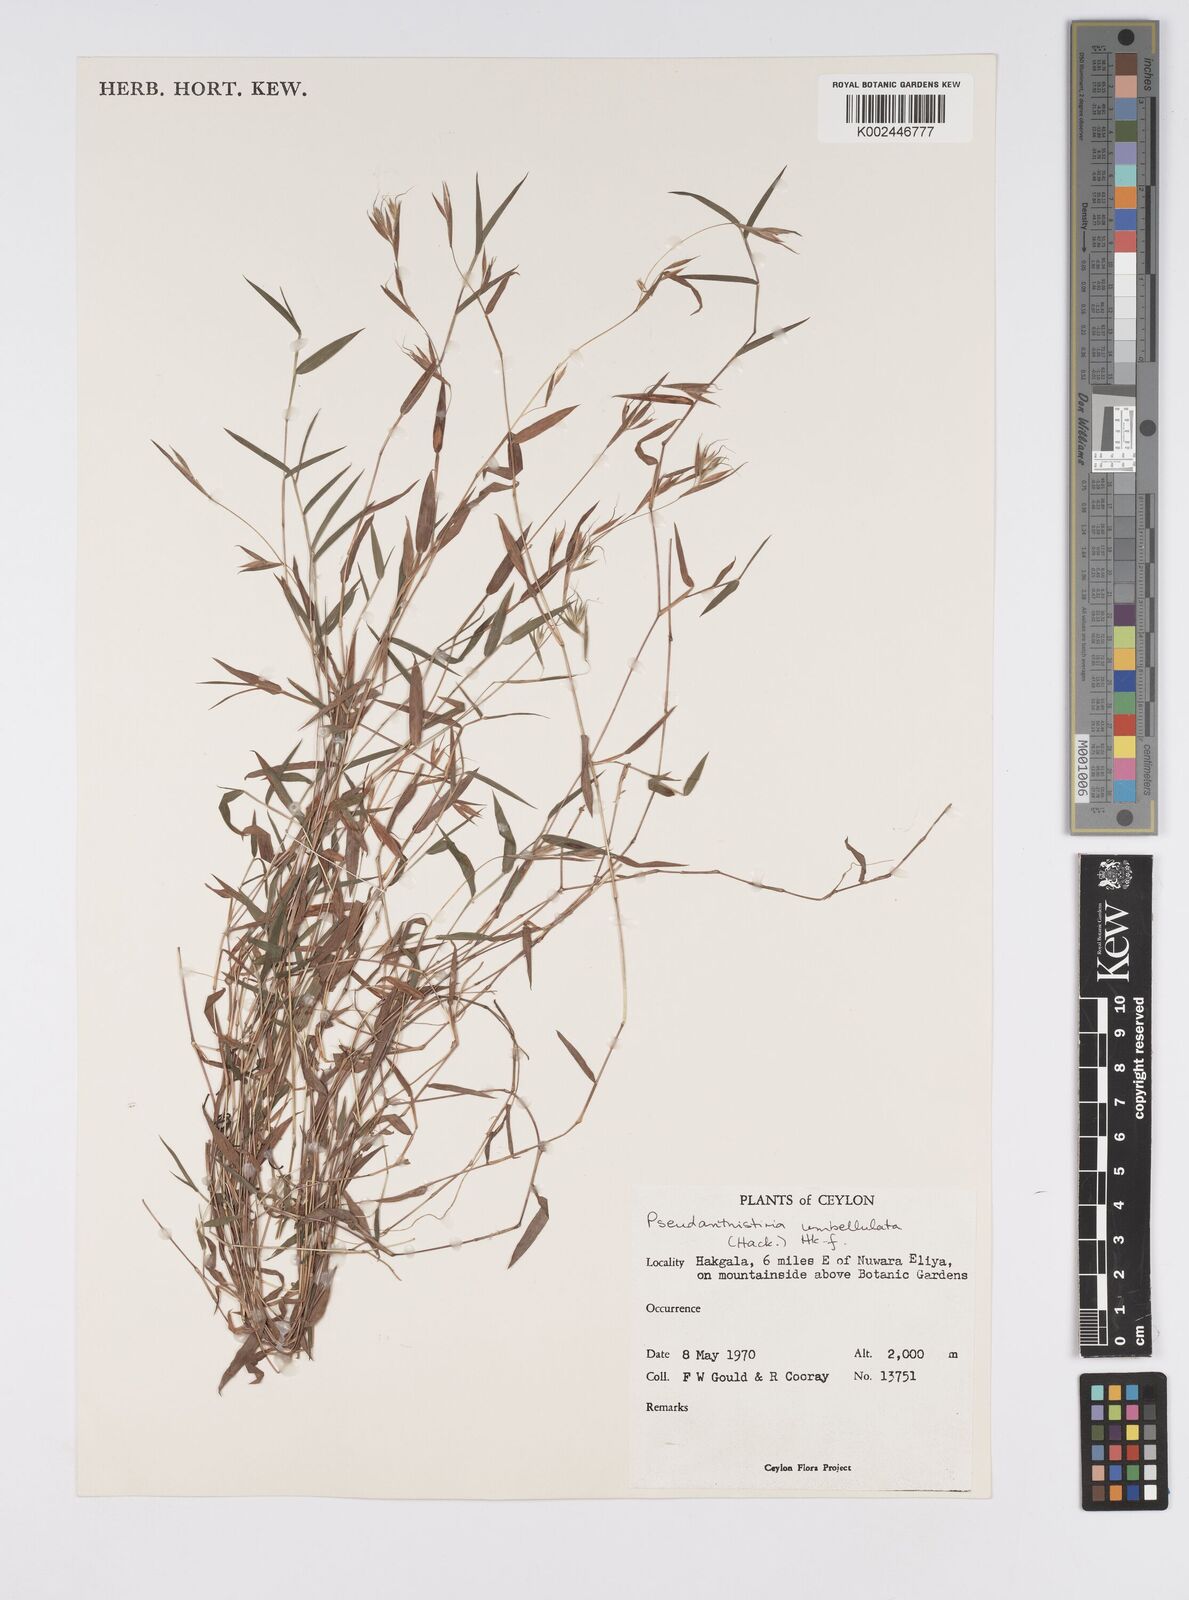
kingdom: Plantae
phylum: Tracheophyta
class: Liliopsida
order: Poales
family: Poaceae
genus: Pseudanthistiria
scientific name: Pseudanthistiria umbellata
